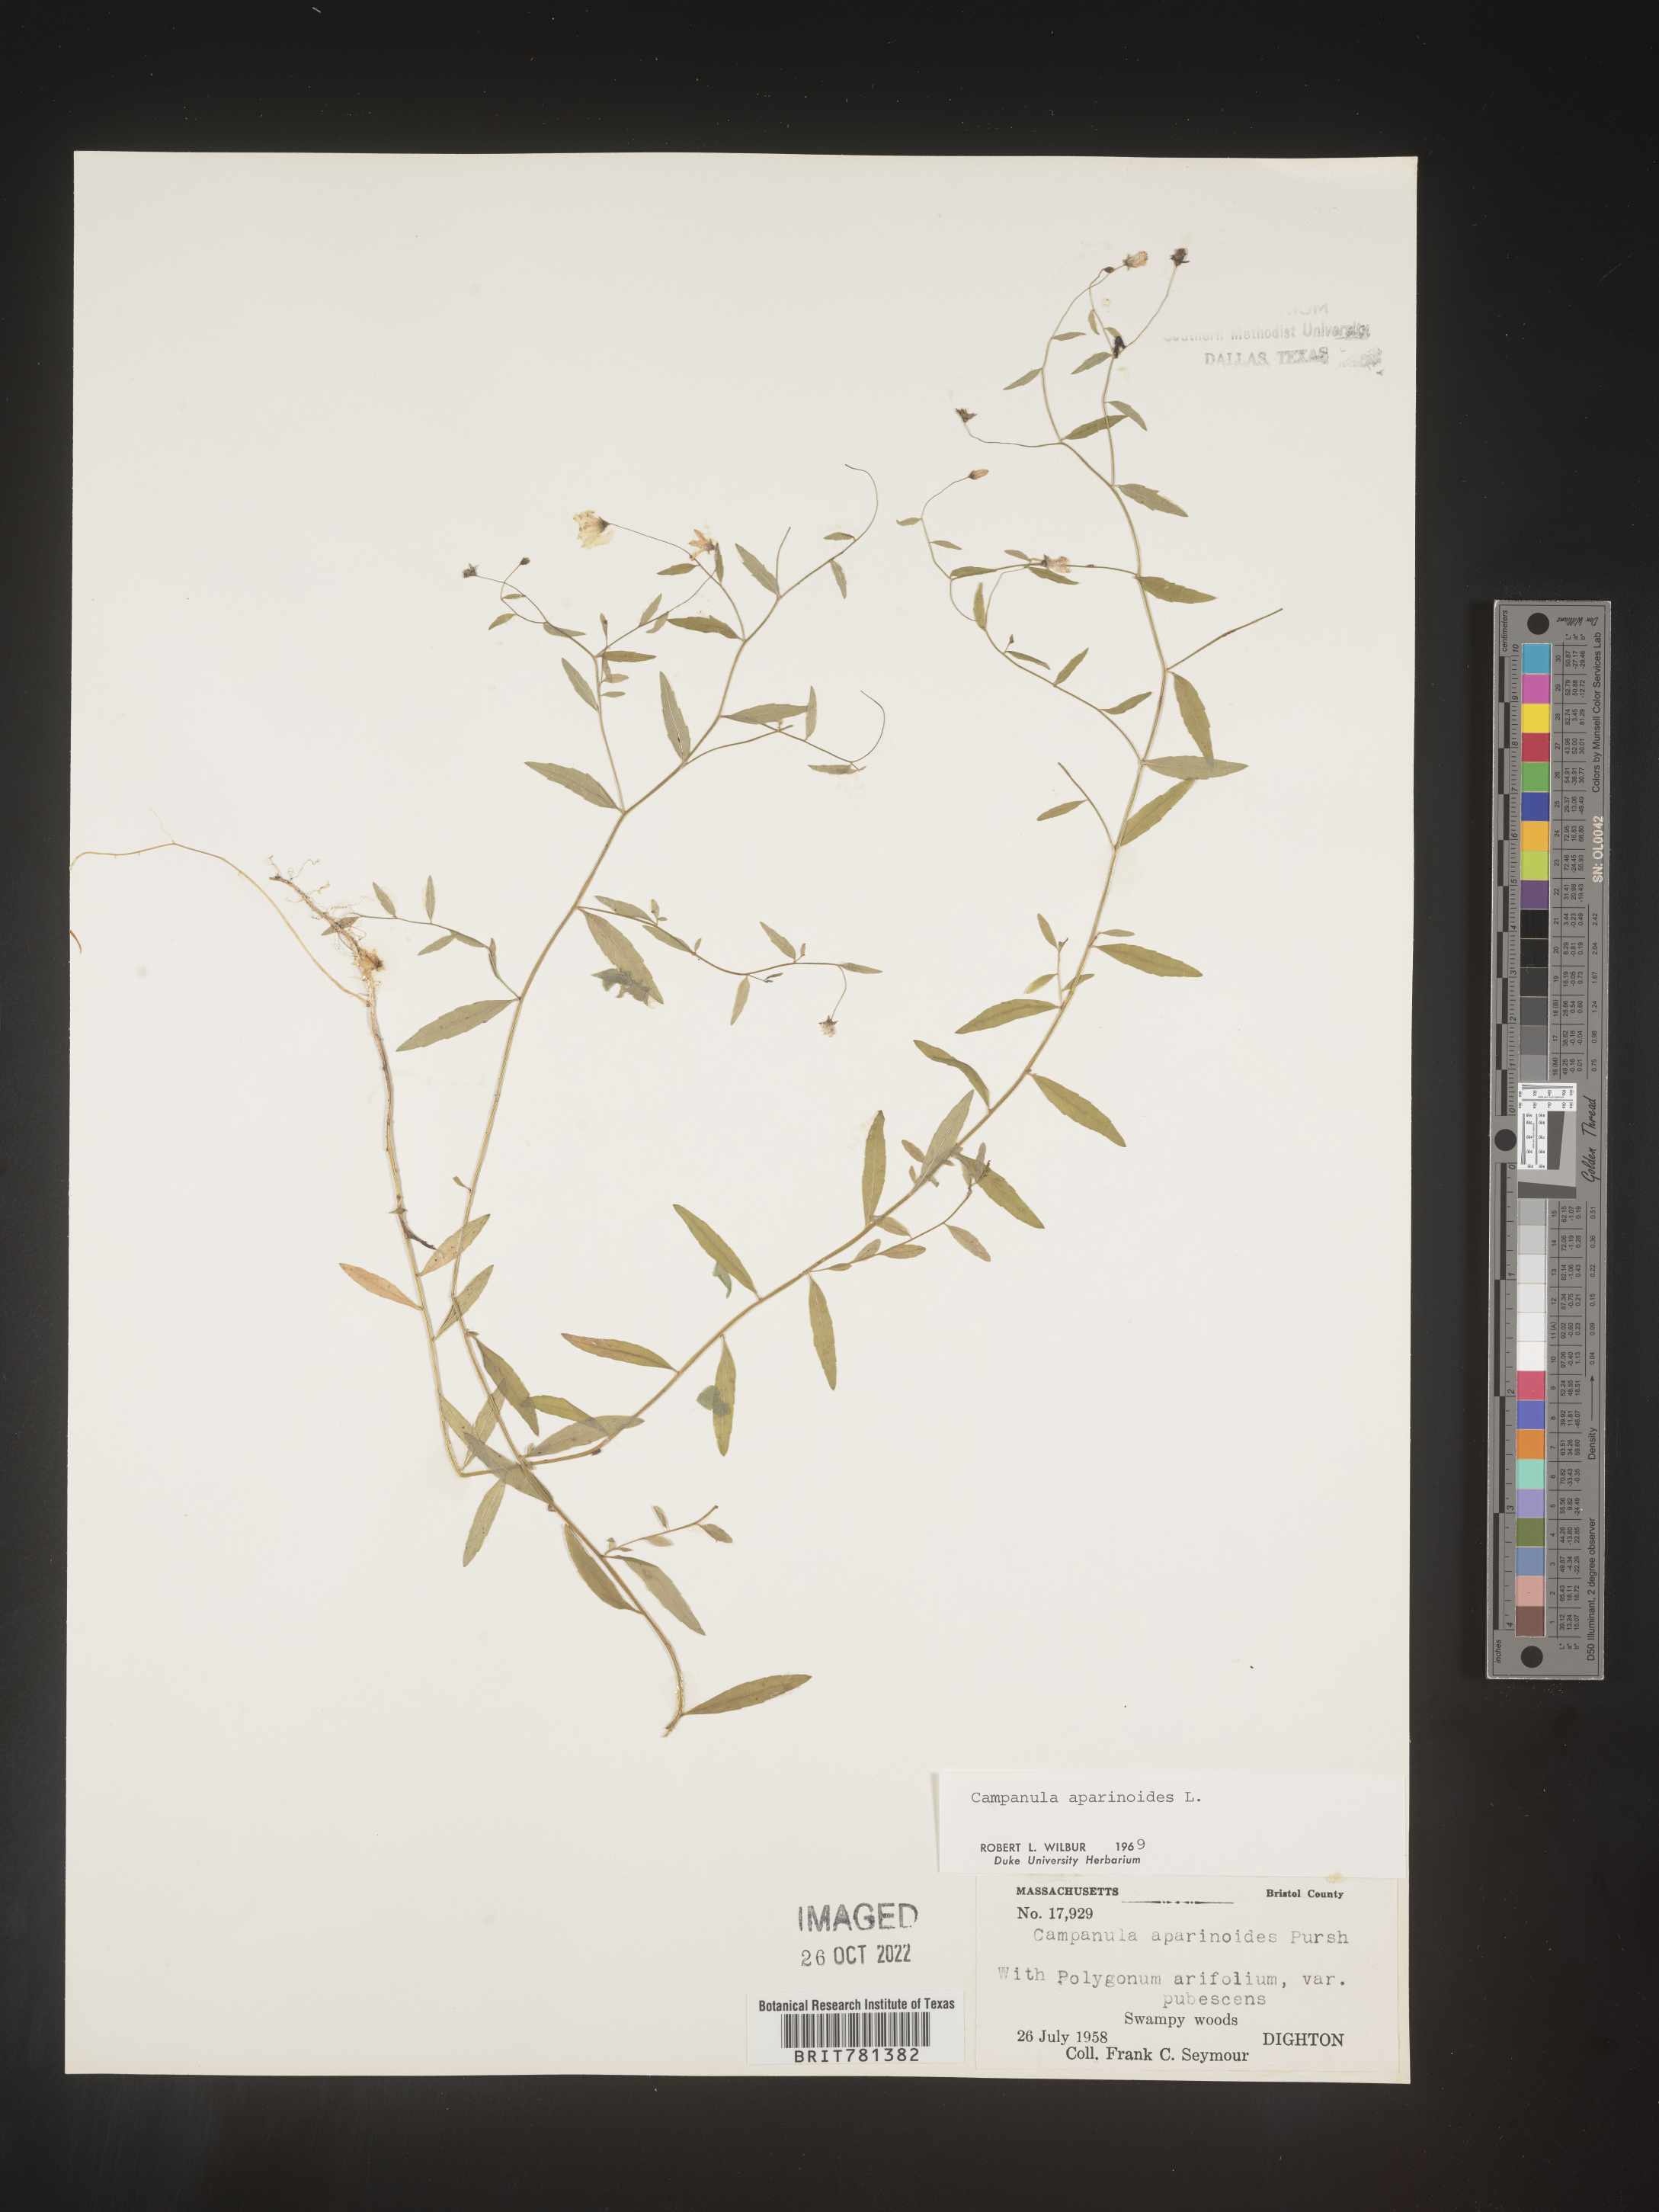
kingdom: Plantae
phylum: Tracheophyta
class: Magnoliopsida
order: Asterales
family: Campanulaceae
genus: Palustricodon
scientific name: Palustricodon aparinoides
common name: Bedstraw bellflower
